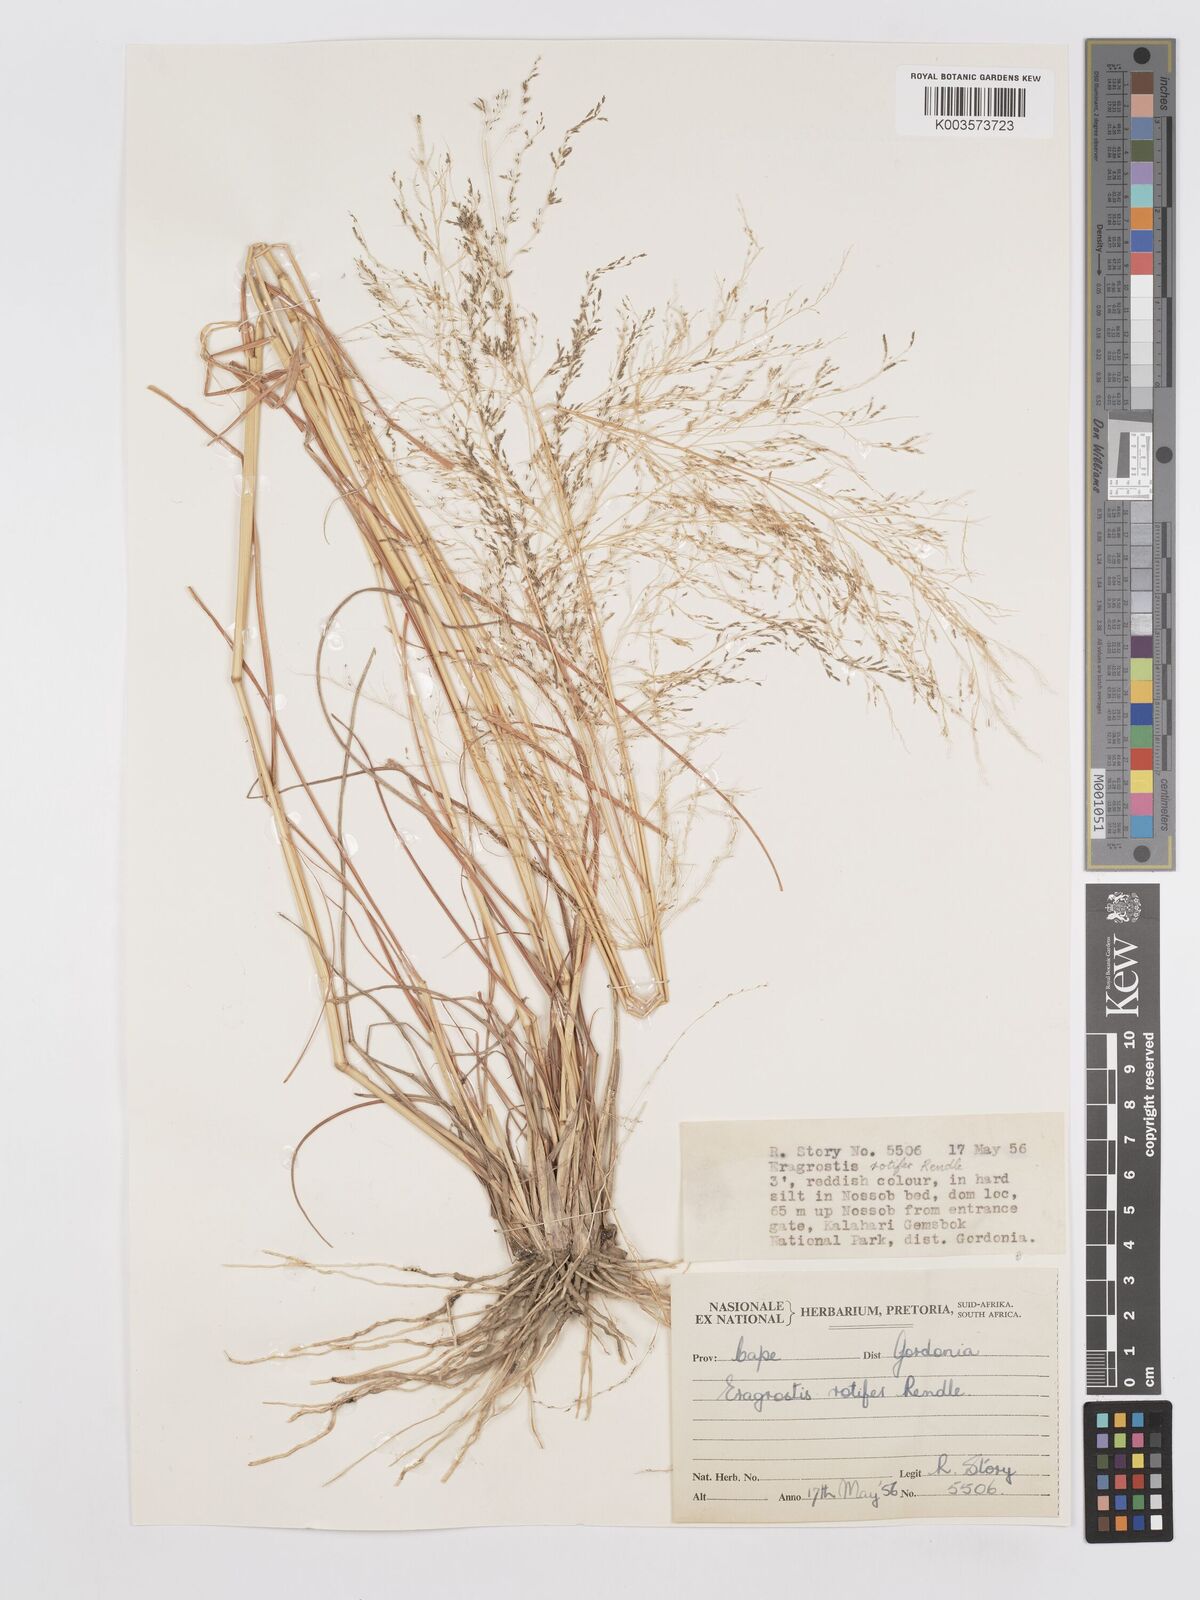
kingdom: Plantae
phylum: Tracheophyta
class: Liliopsida
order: Poales
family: Poaceae
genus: Eragrostis
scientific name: Eragrostis rotifer
